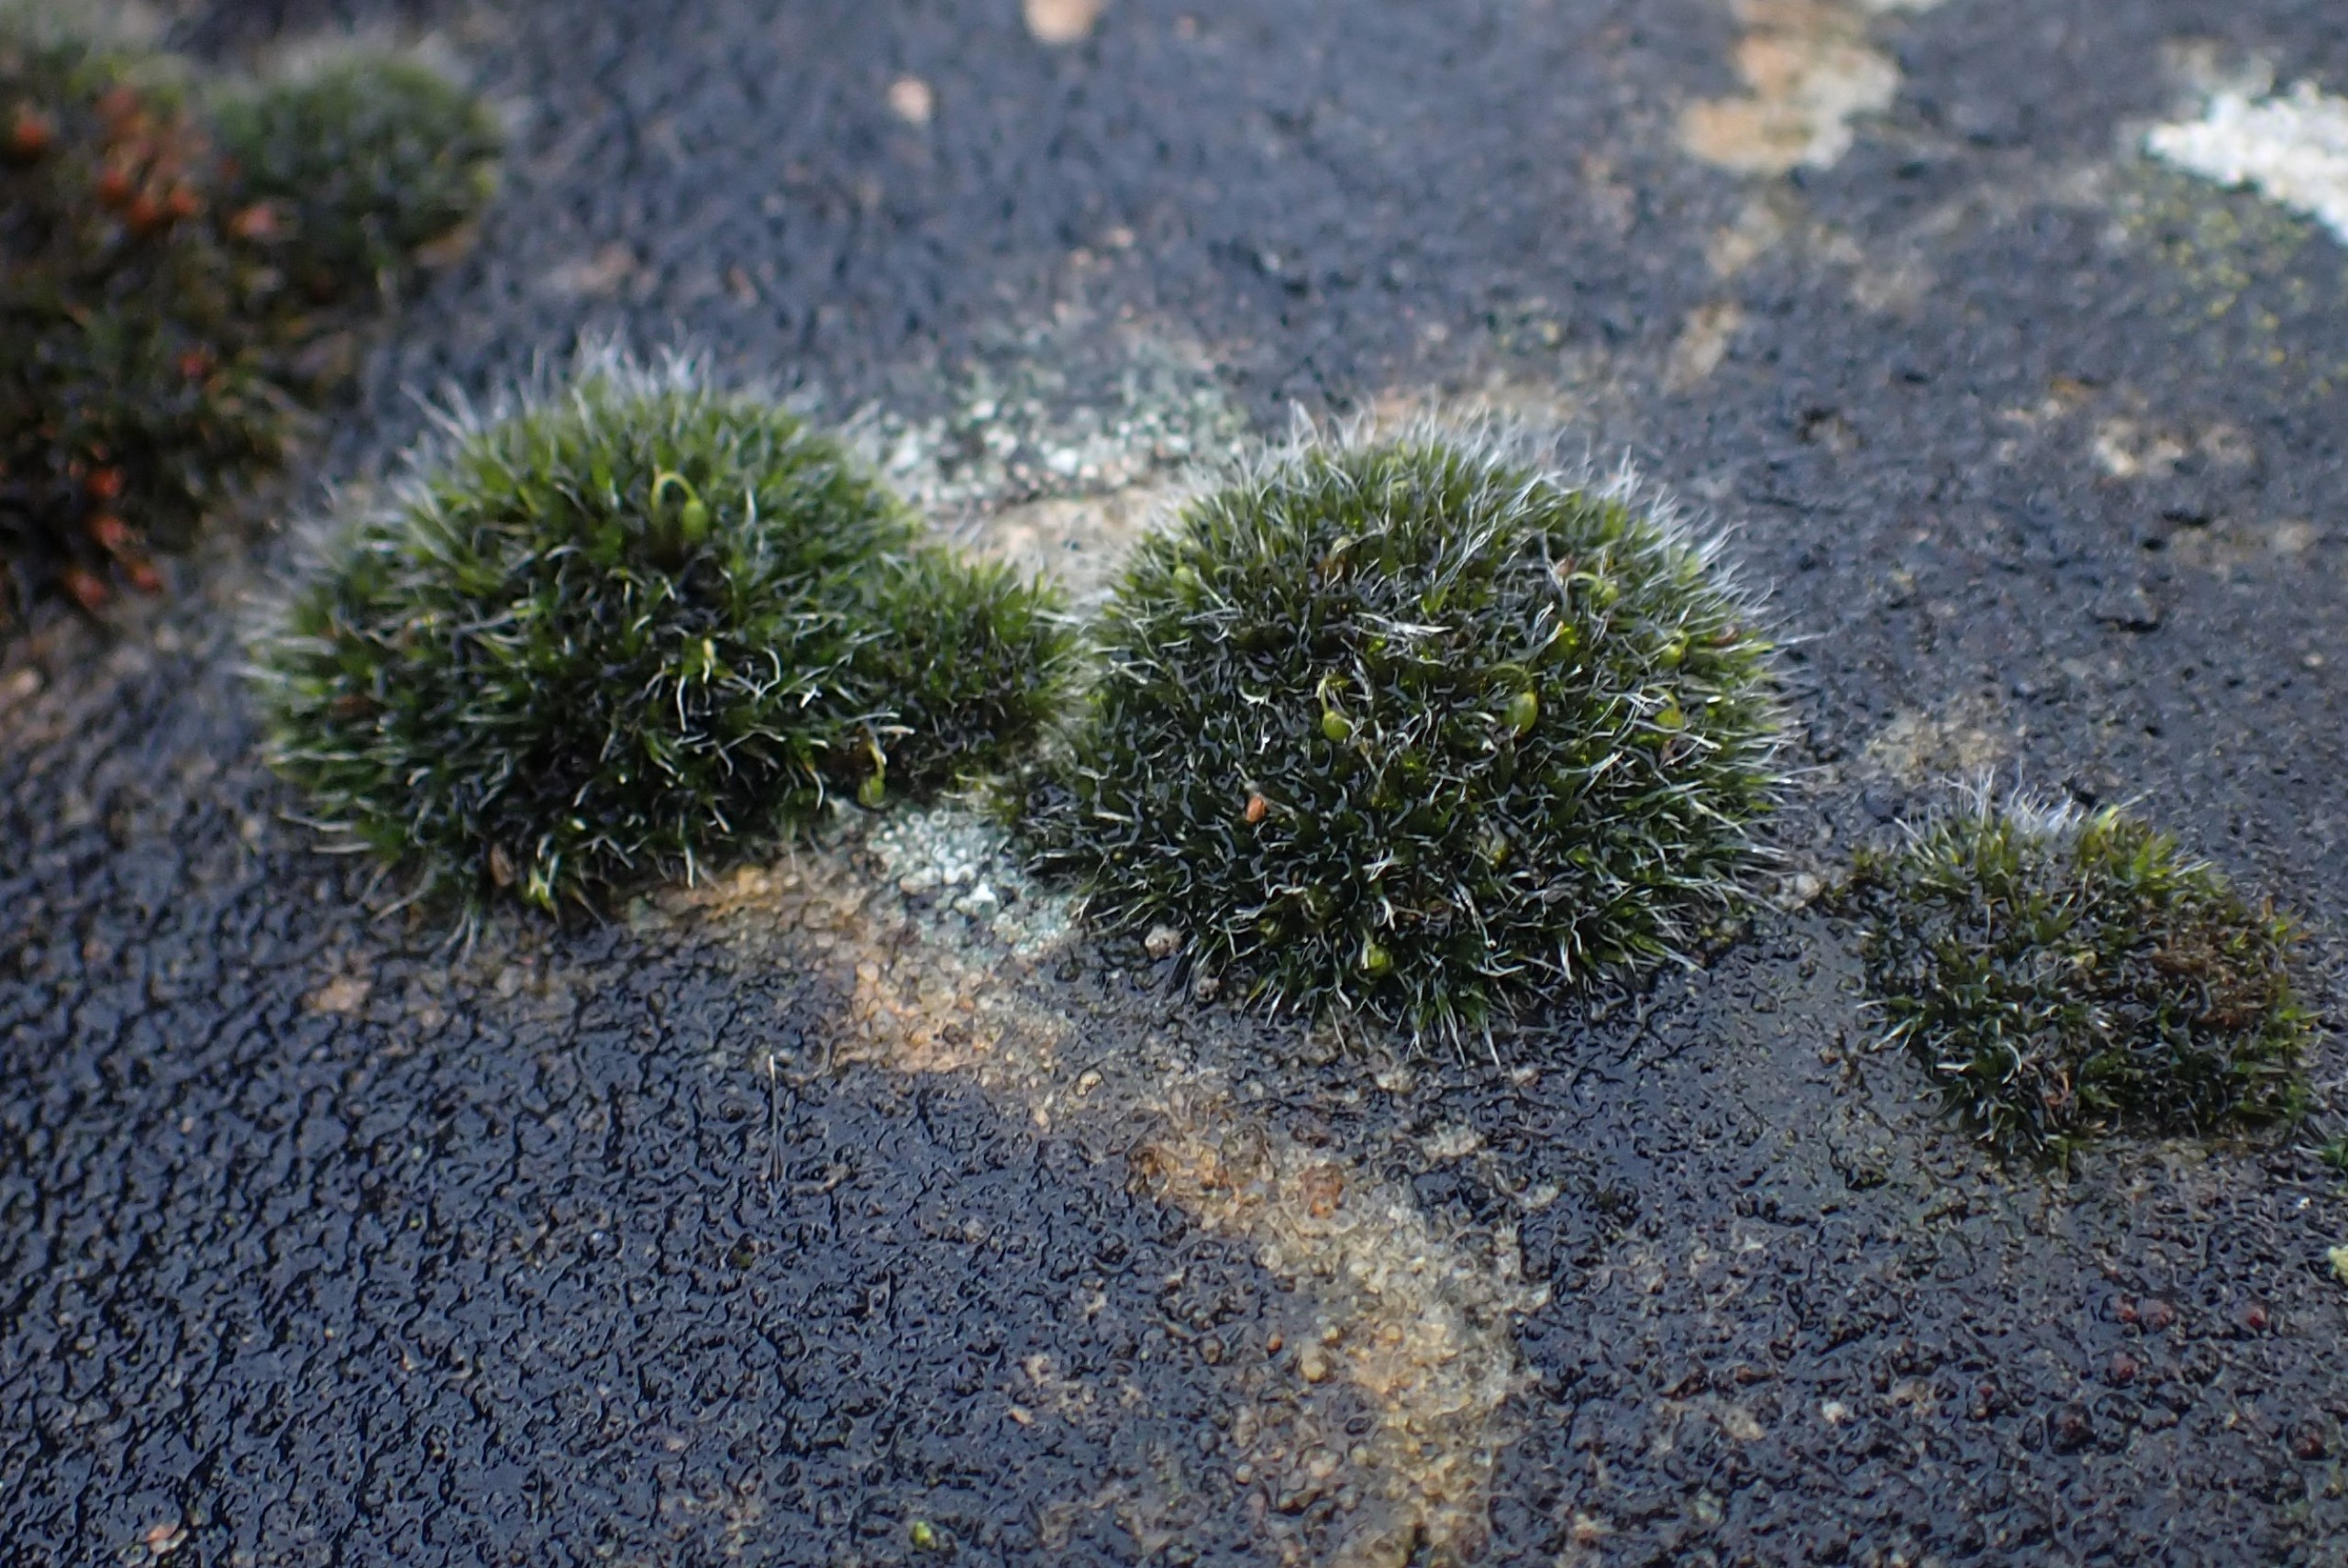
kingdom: Plantae
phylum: Bryophyta
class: Bryopsida
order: Grimmiales
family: Grimmiaceae
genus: Grimmia
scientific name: Grimmia pulvinata
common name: Pude-gråmos
